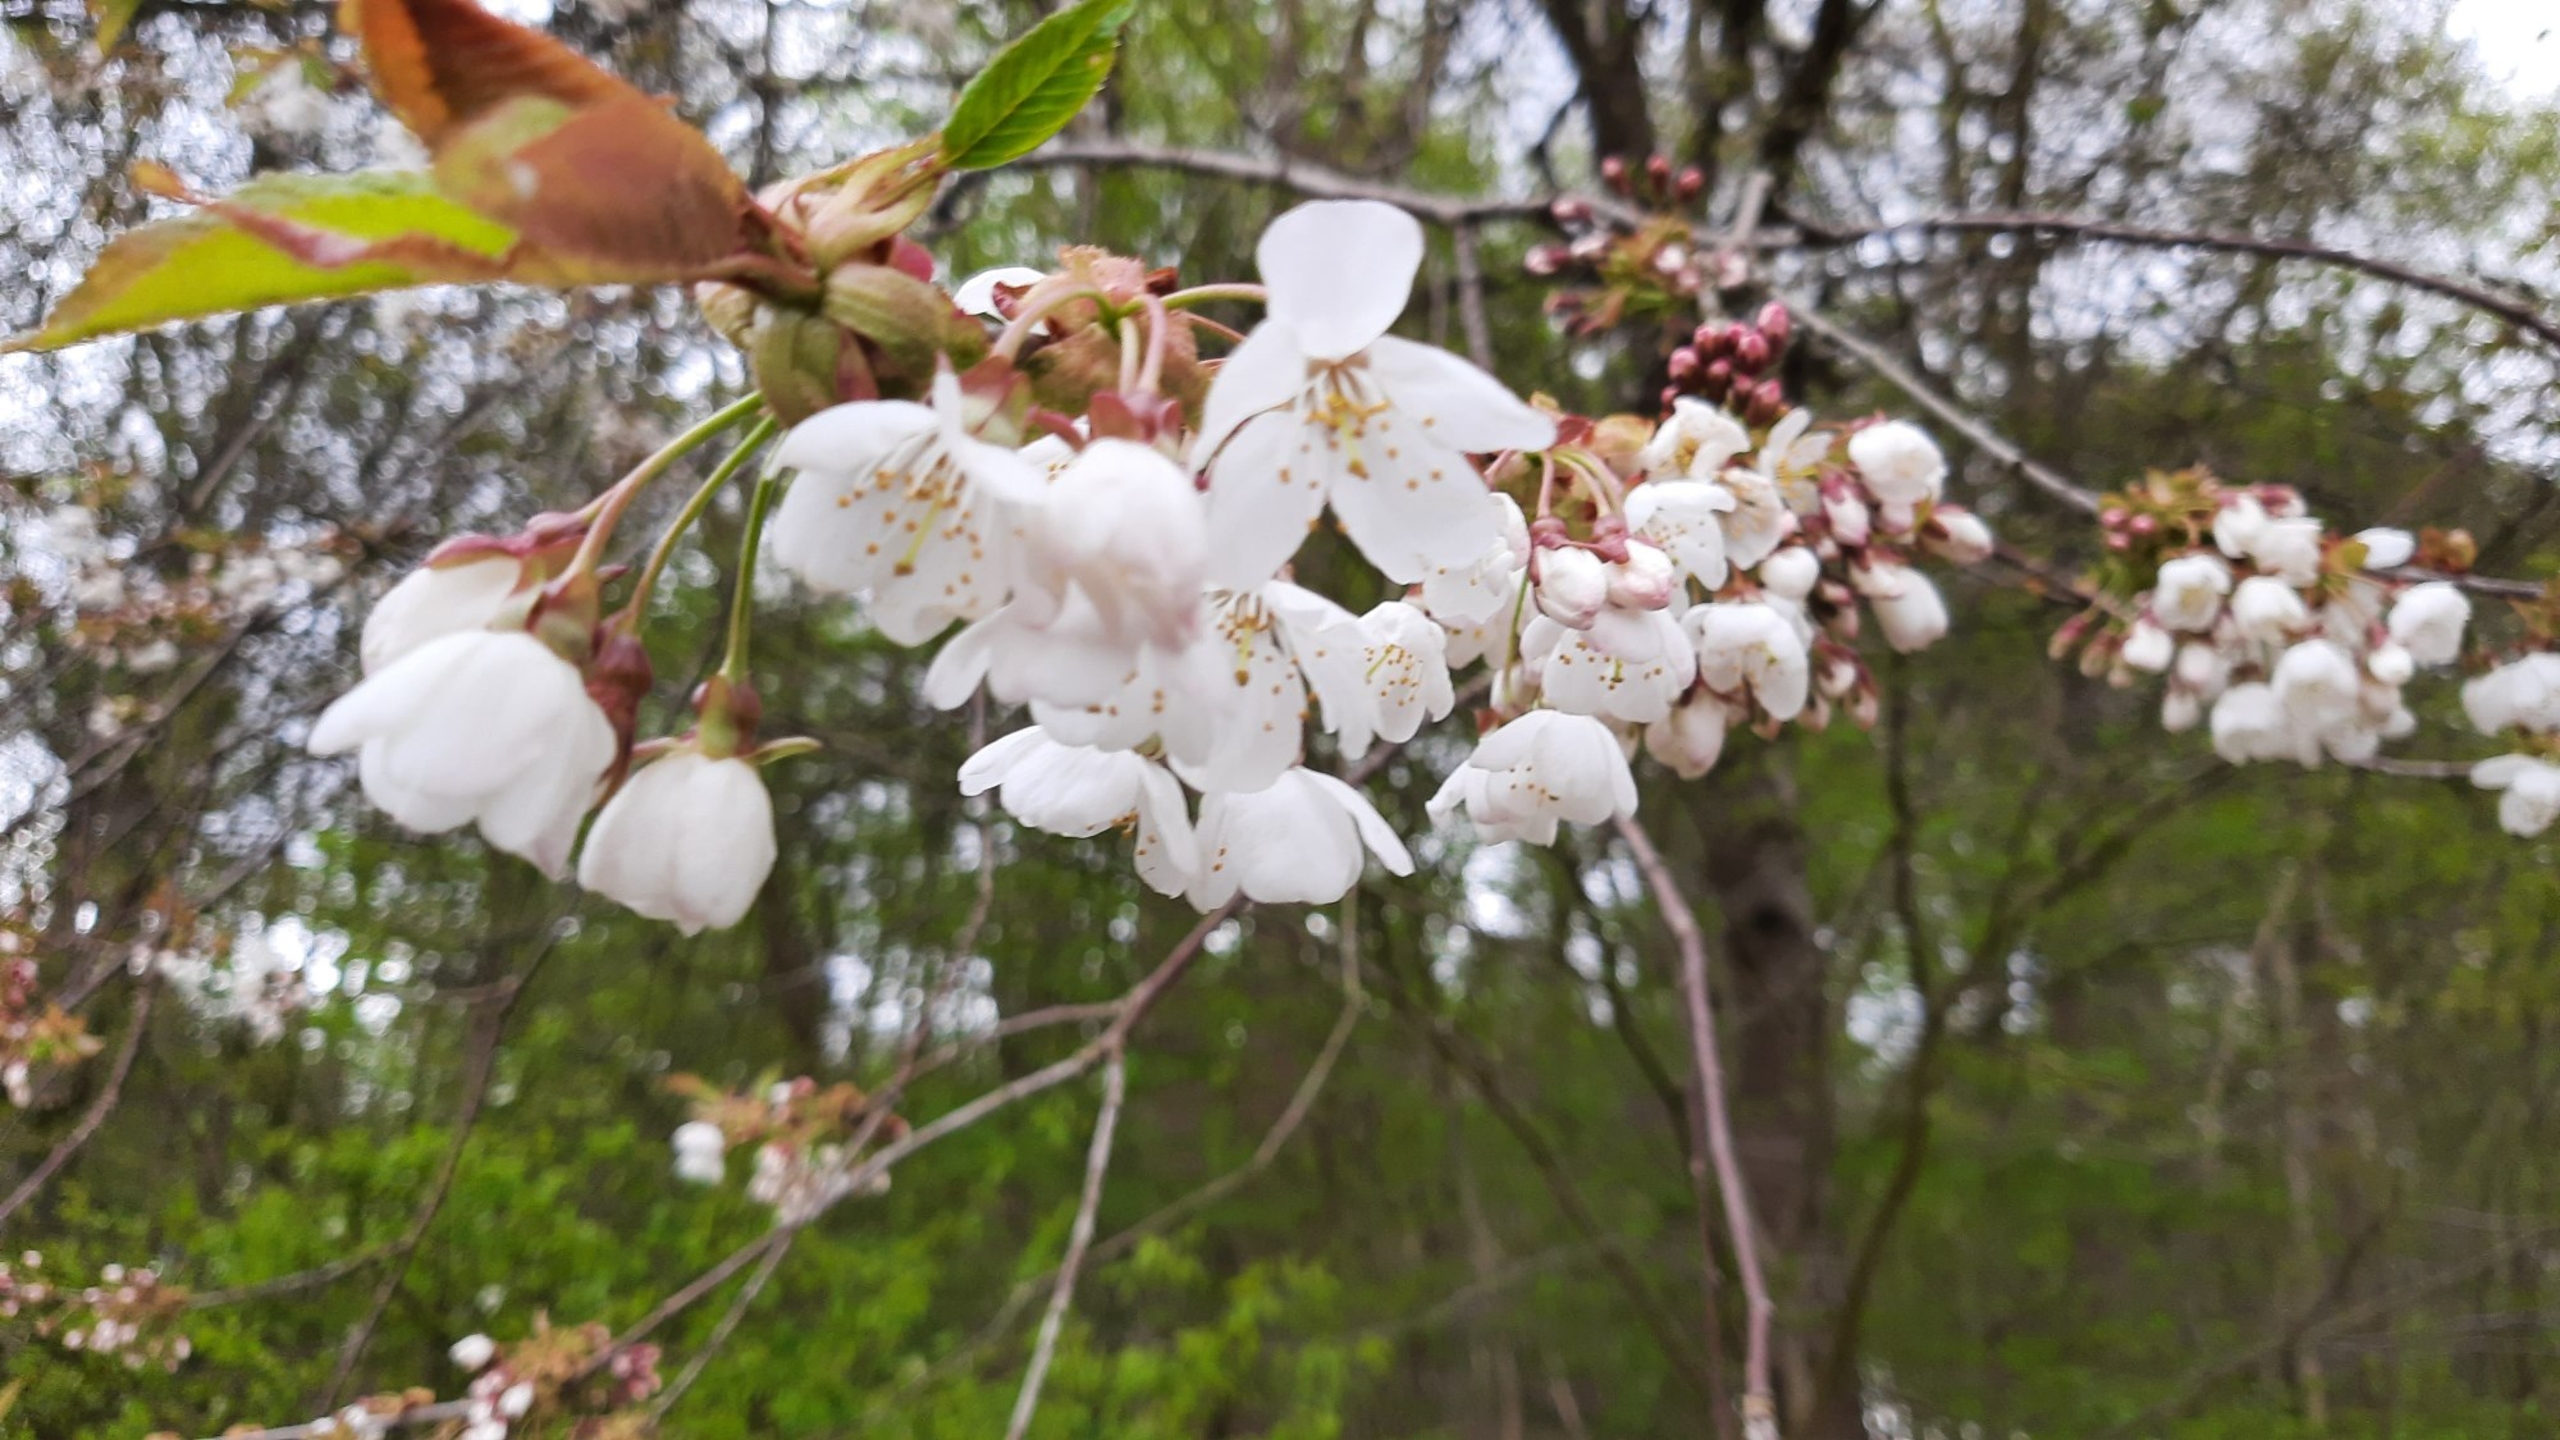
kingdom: Plantae
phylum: Tracheophyta
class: Magnoliopsida
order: Rosales
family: Rosaceae
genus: Prunus
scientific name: Prunus avium
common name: Fugle-kirsebær
